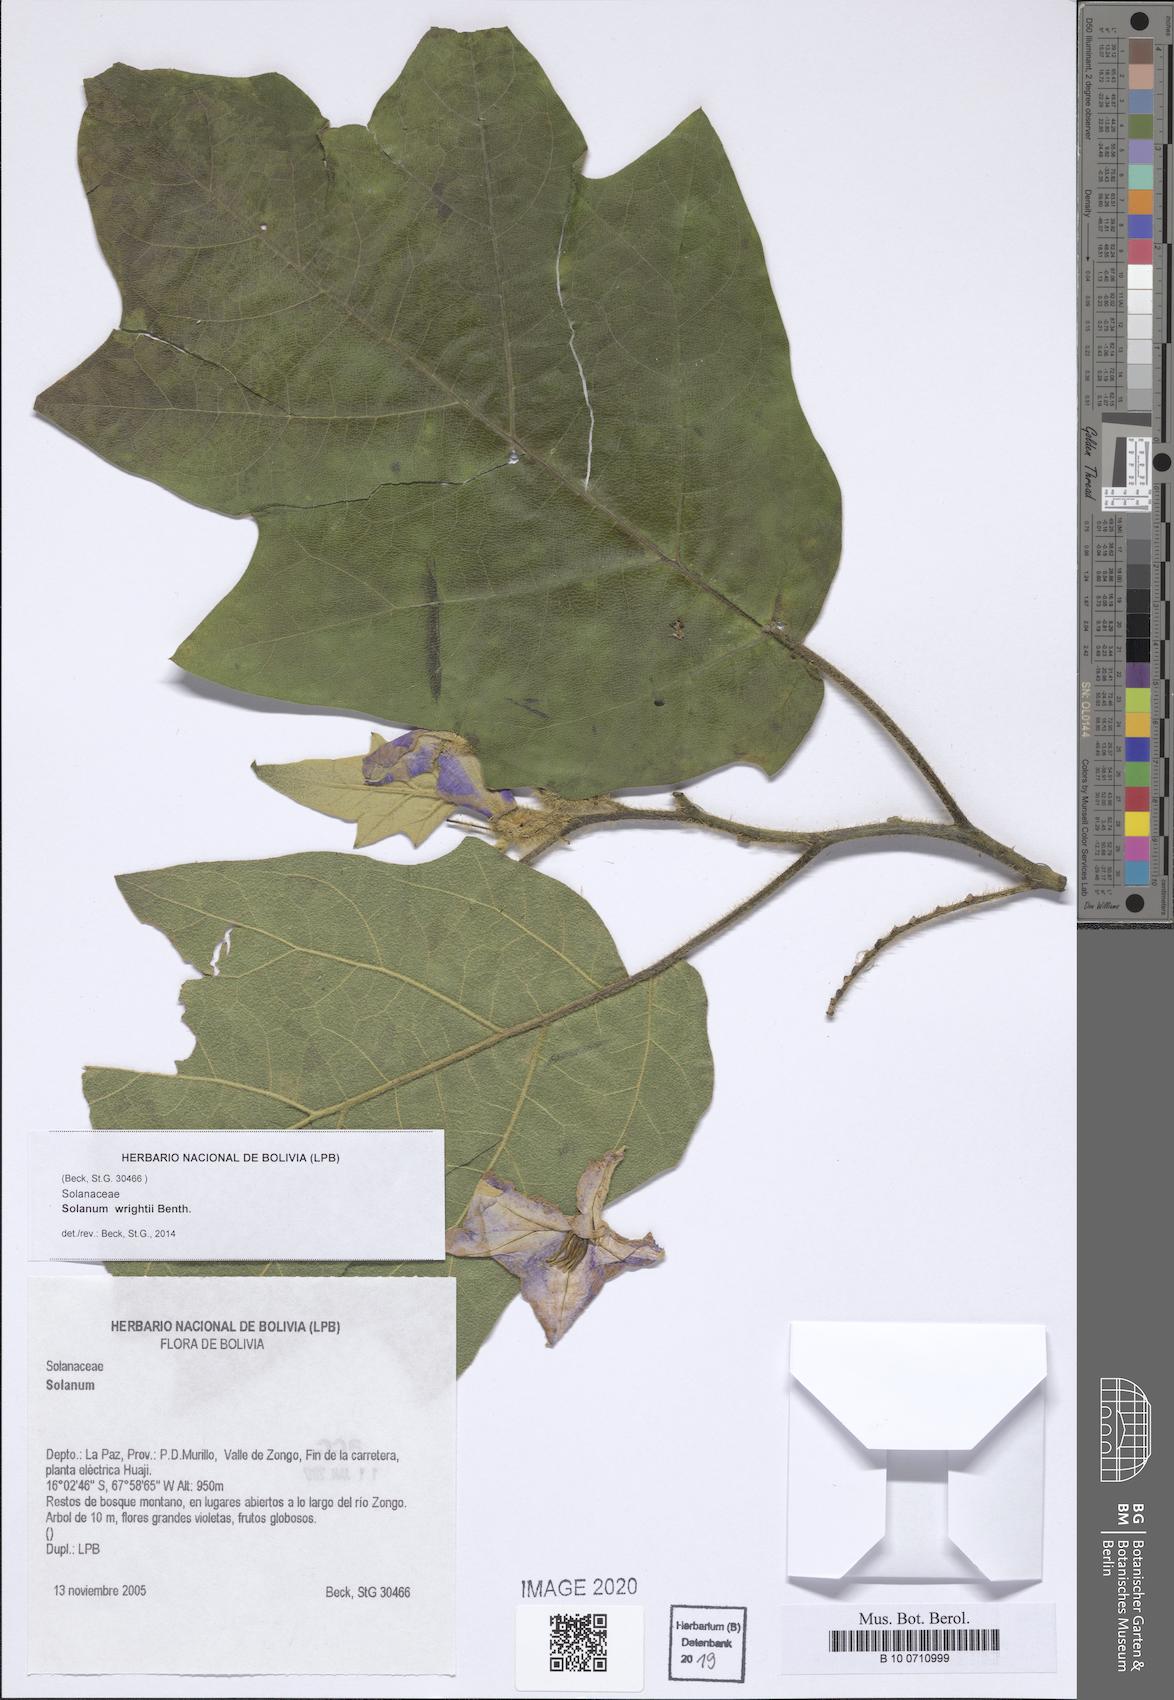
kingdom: Plantae
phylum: Tracheophyta
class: Magnoliopsida
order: Solanales
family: Solanaceae
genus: Solanum
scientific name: Solanum wrightii
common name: Brazilian potato-tree
